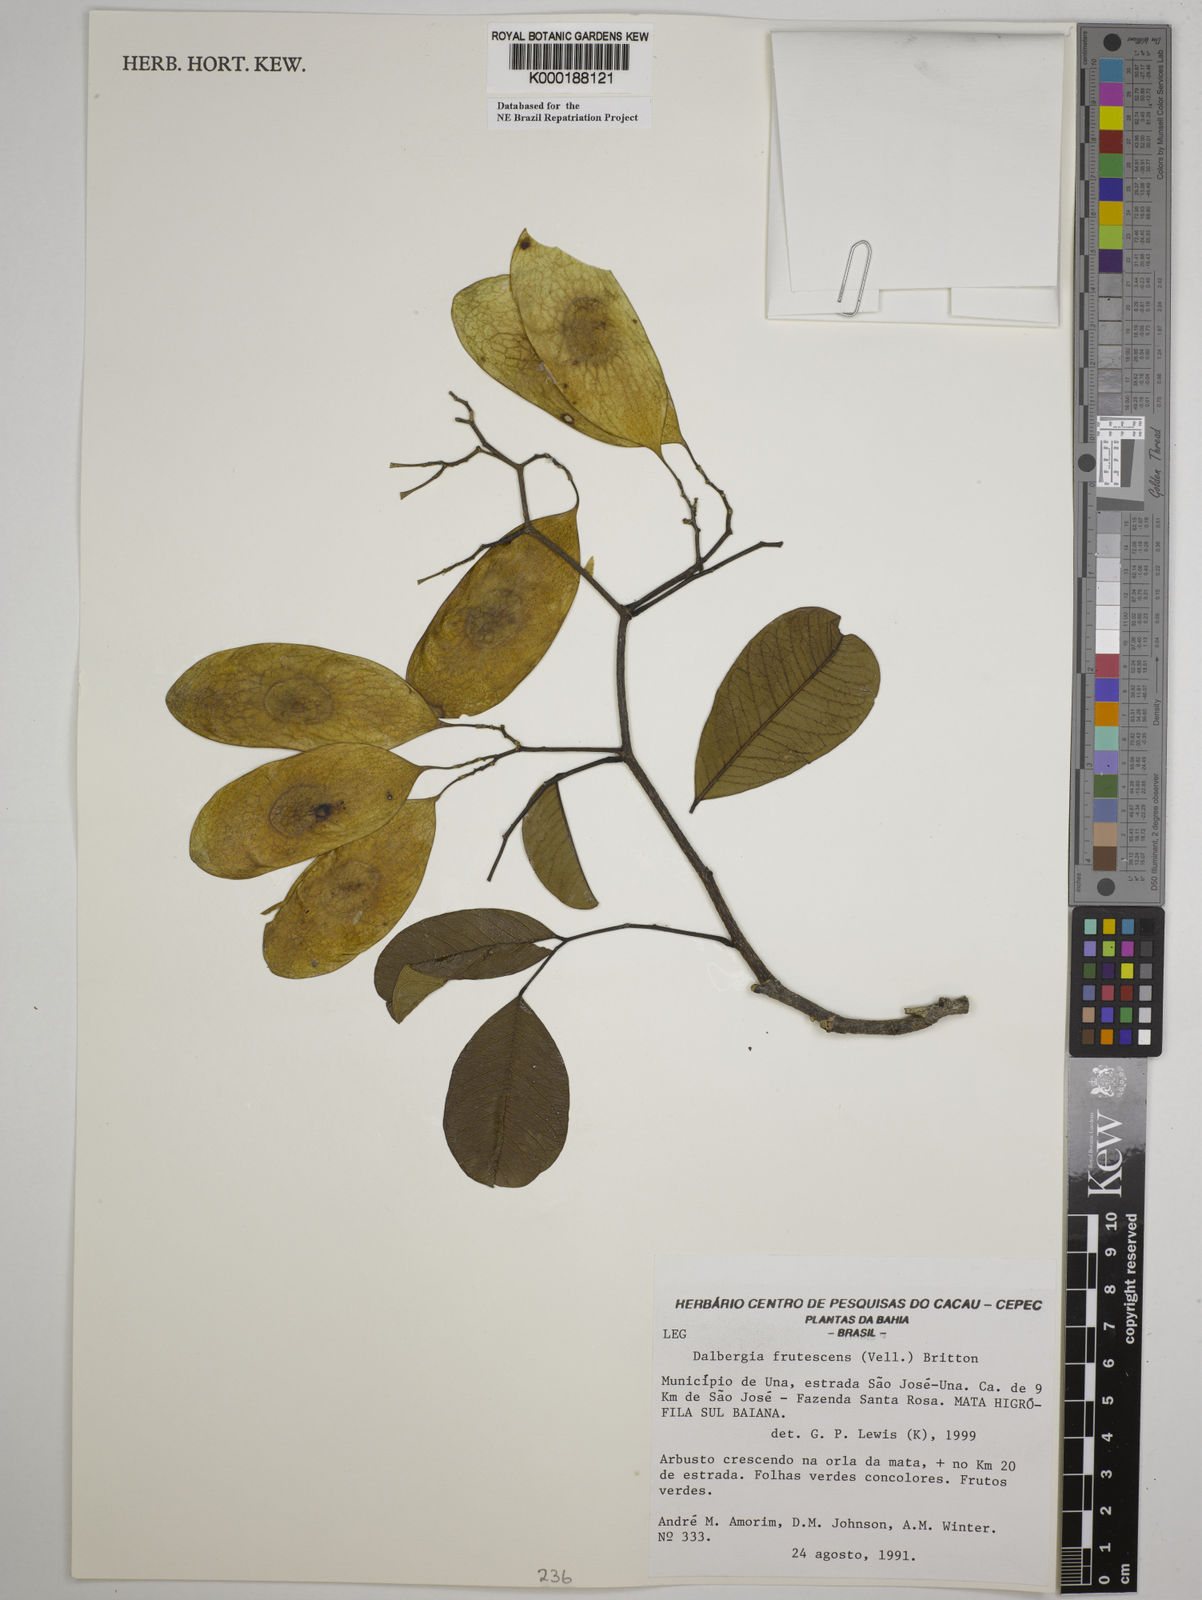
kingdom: Plantae
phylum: Tracheophyta
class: Magnoliopsida
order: Fabales
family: Fabaceae
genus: Dalbergia
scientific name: Dalbergia frutescens
